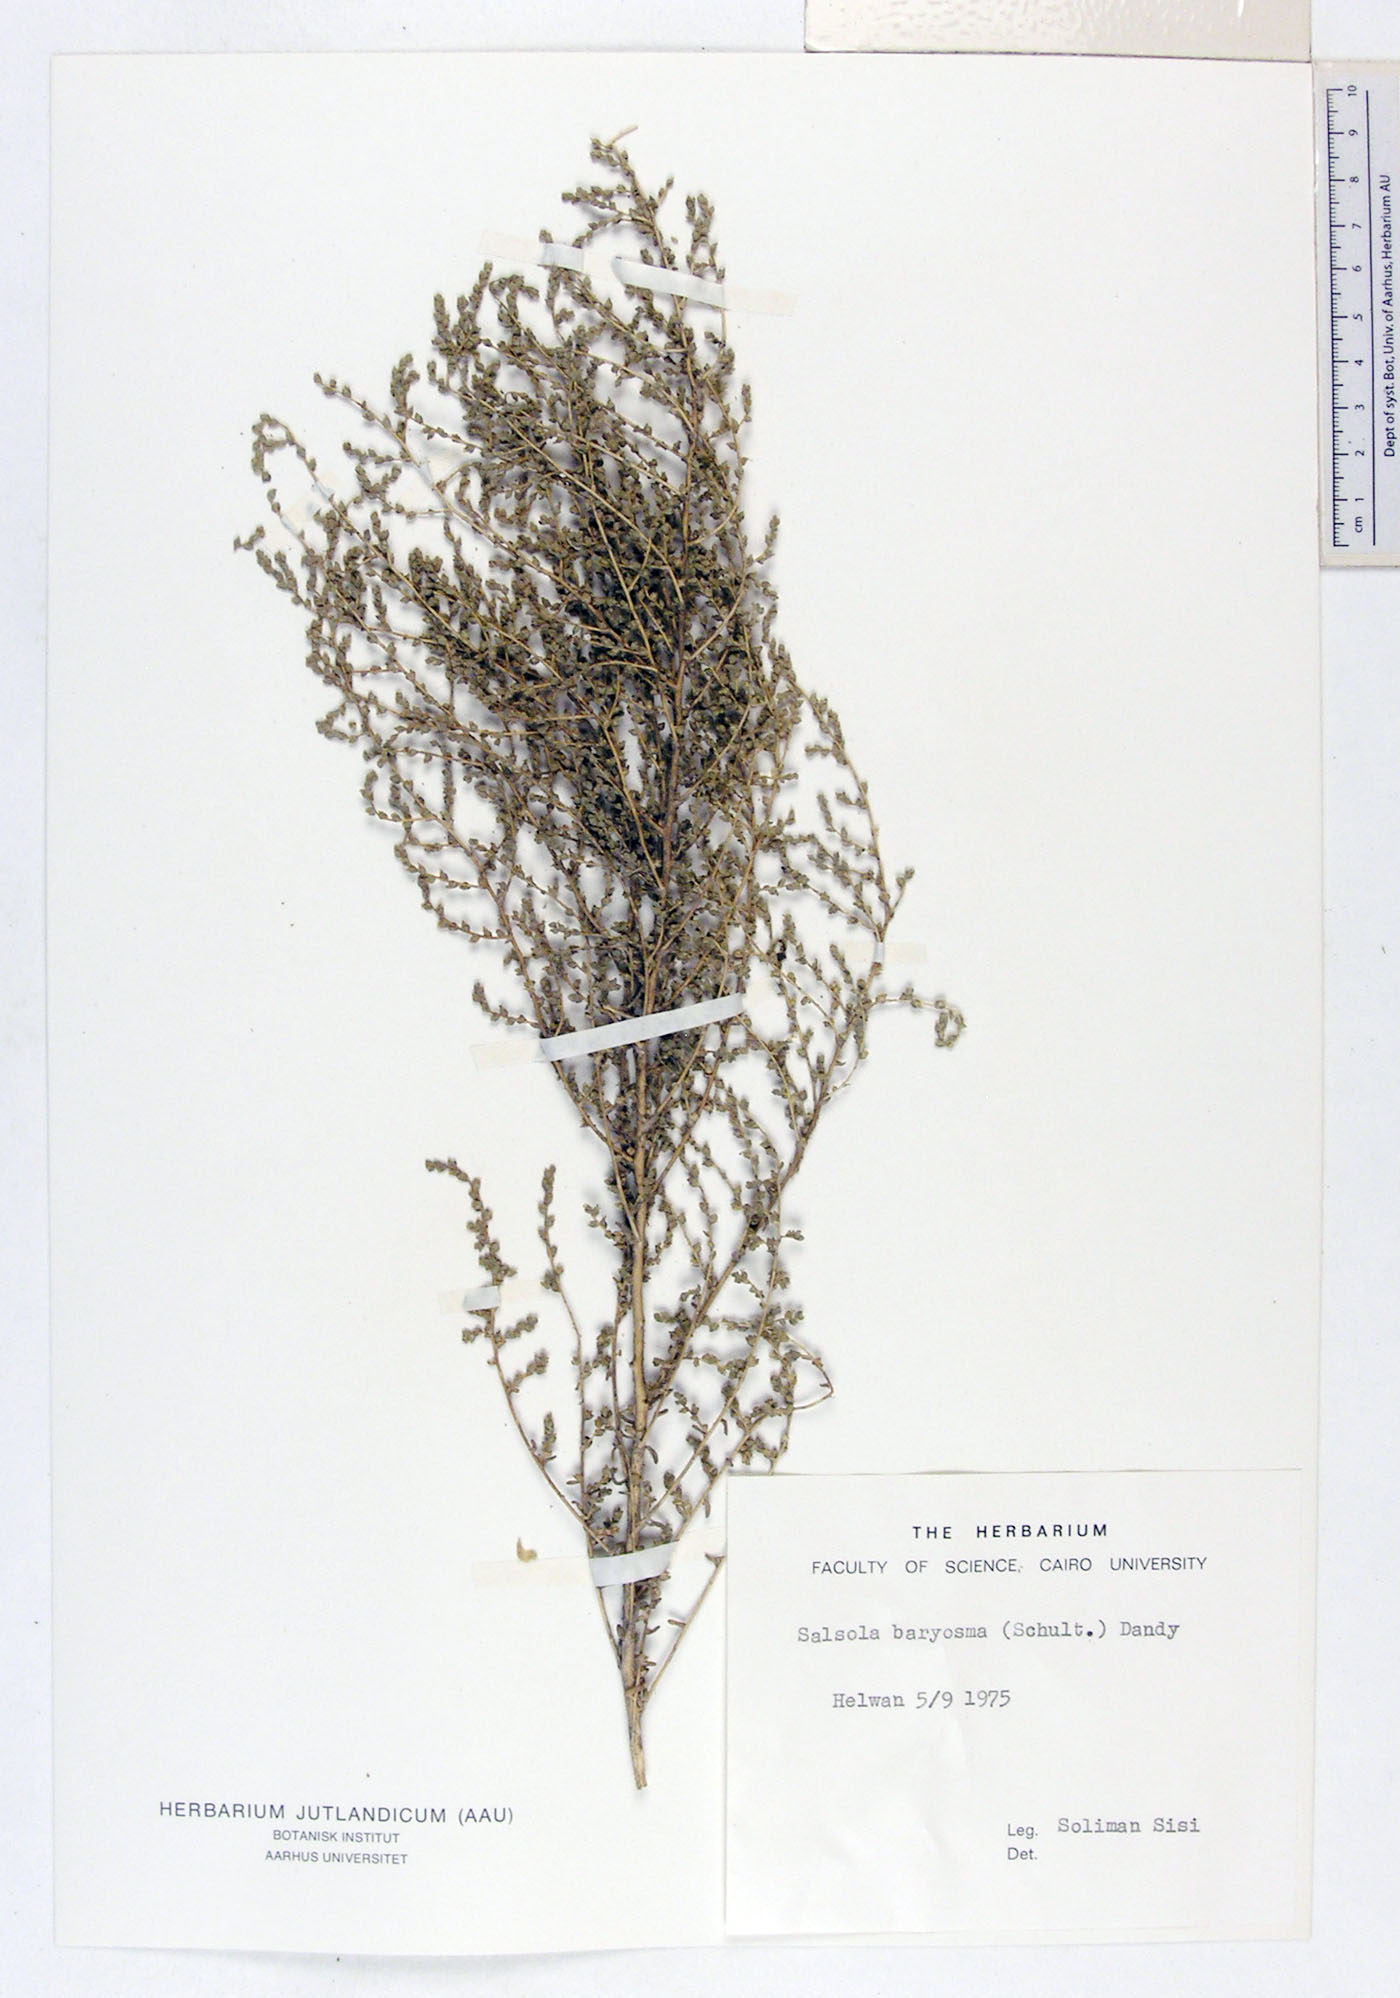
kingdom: Plantae
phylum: Tracheophyta
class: Magnoliopsida
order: Caryophyllales
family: Amaranthaceae
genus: Caroxylon
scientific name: Caroxylon imbricatum
